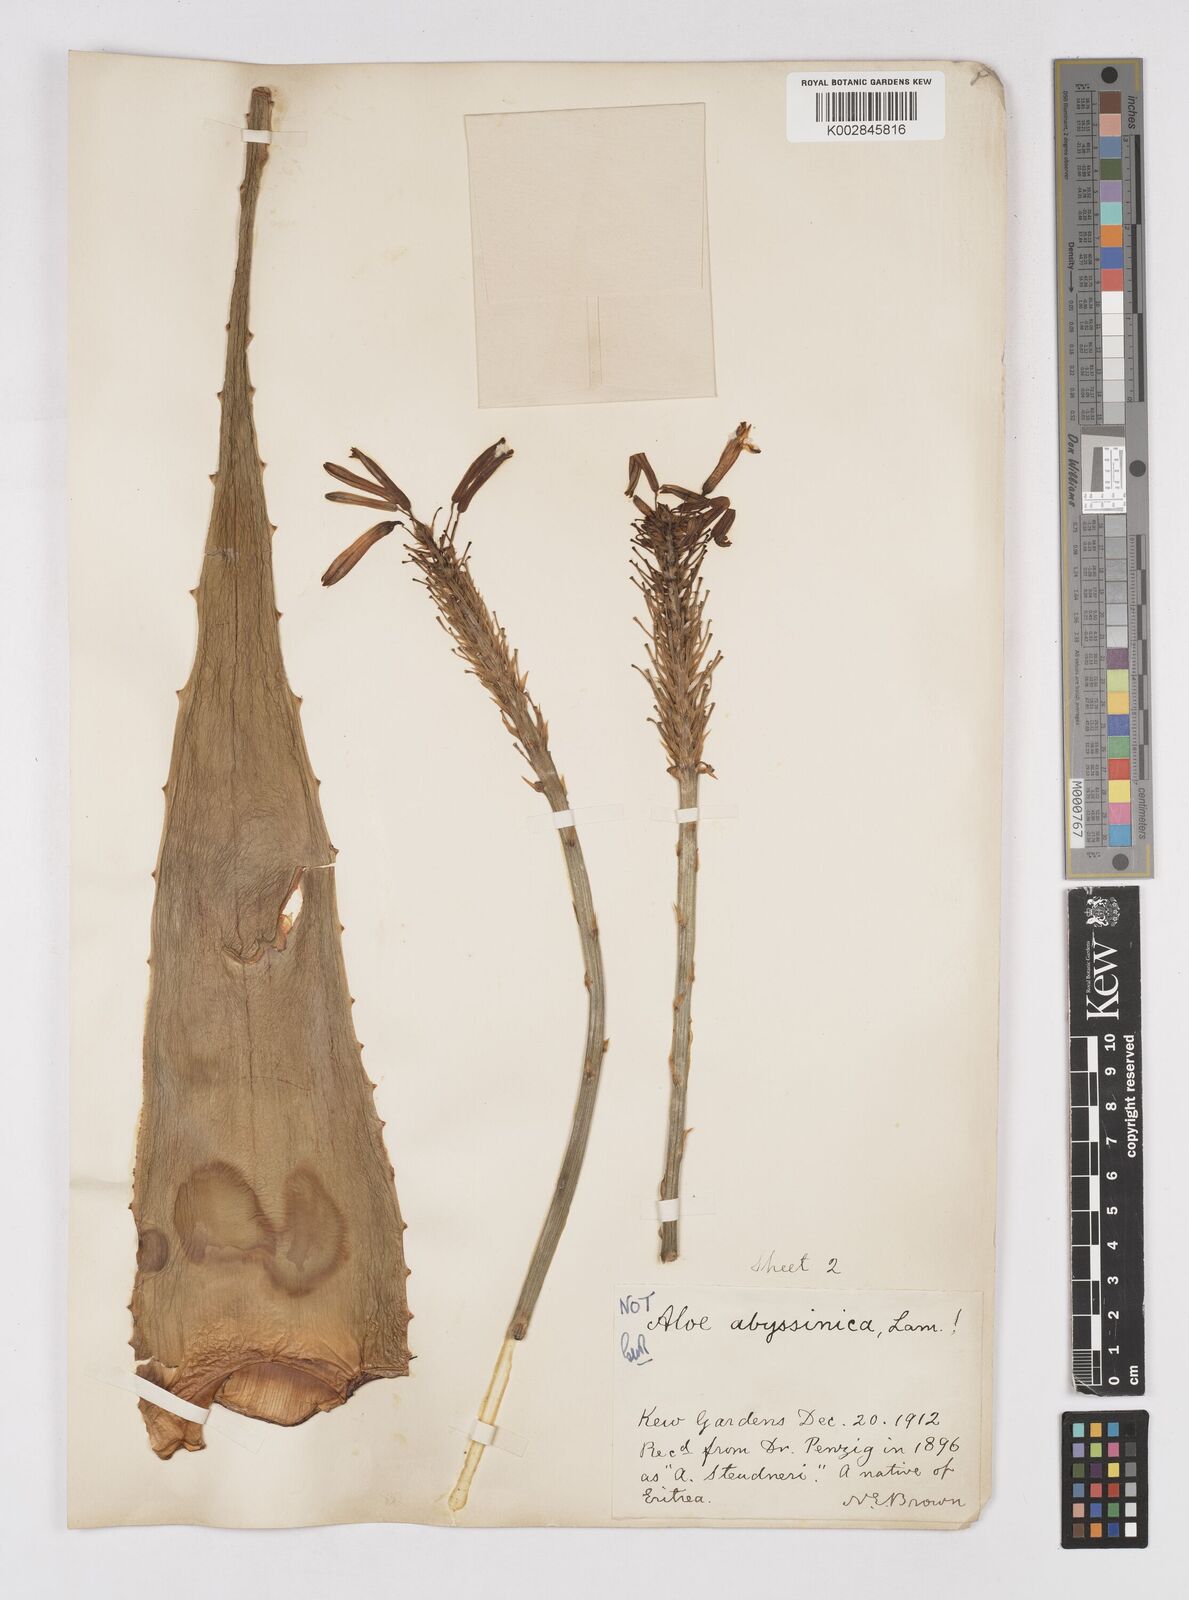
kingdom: Plantae
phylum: Tracheophyta
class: Liliopsida
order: Asparagales
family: Asphodelaceae
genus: Aloe
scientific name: Aloe camperi
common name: Camper's aloe
